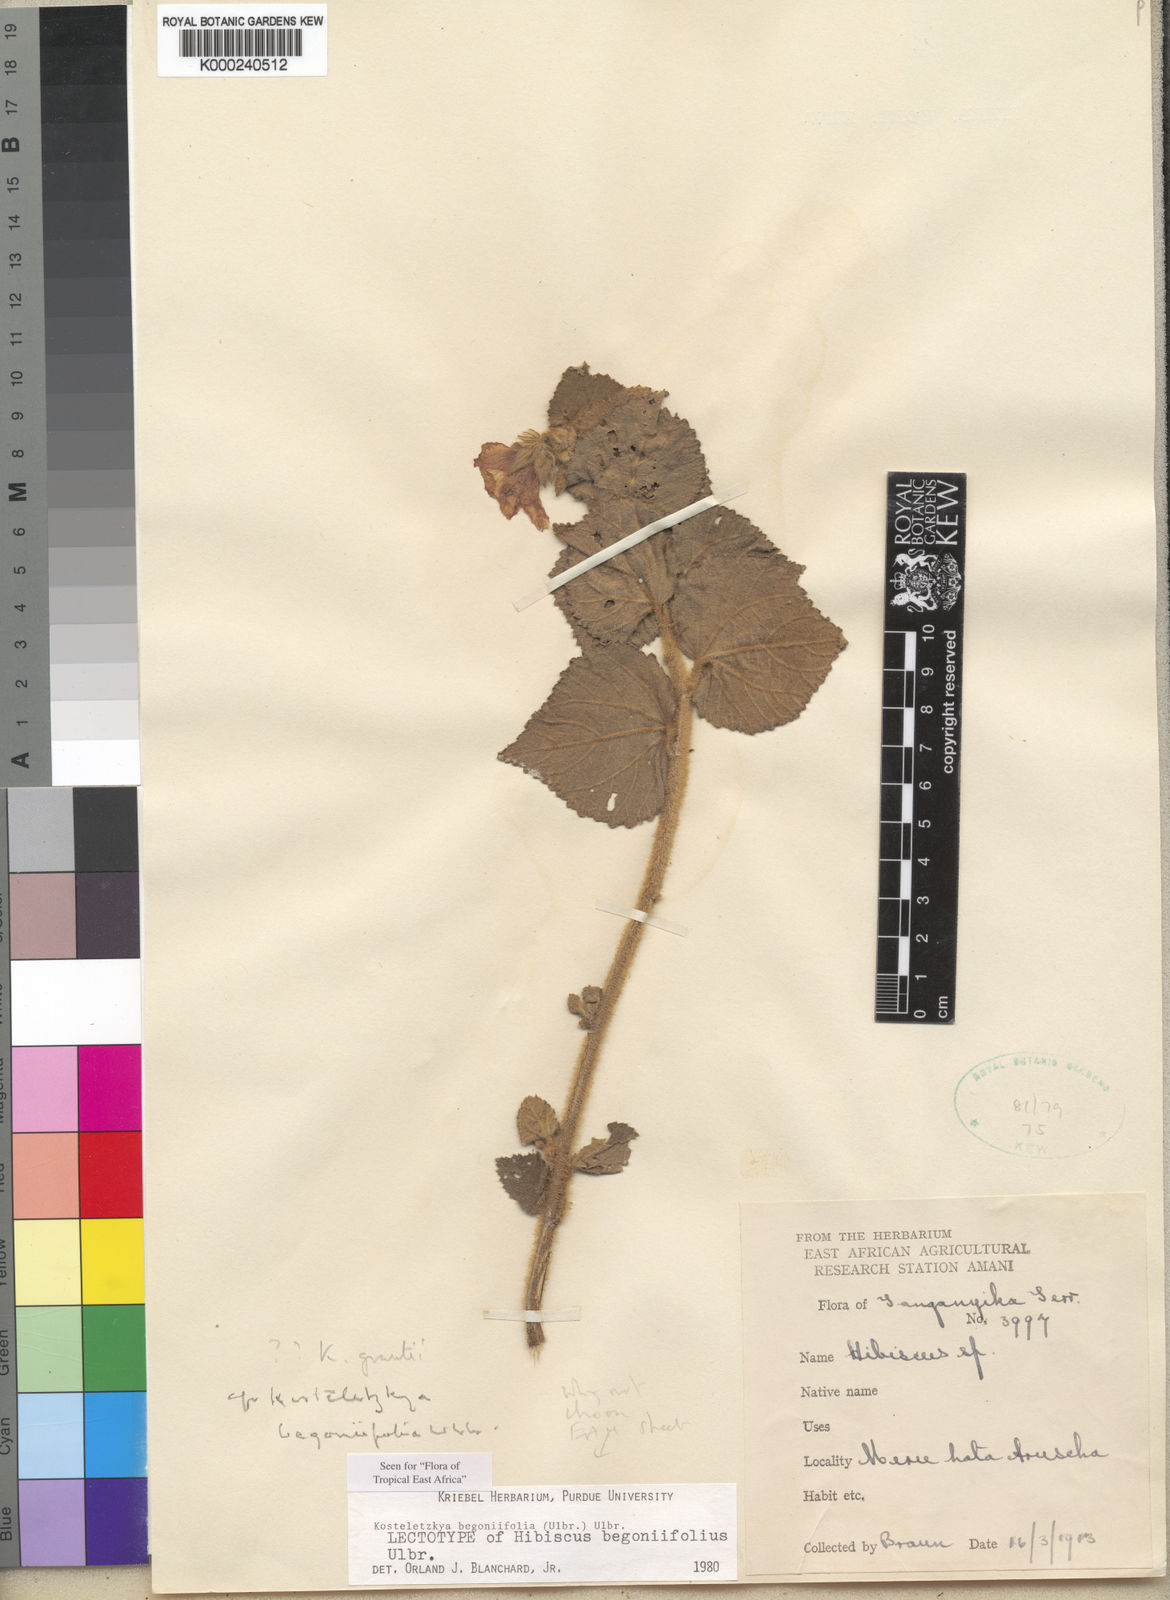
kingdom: Plantae
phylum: Tracheophyta
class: Magnoliopsida
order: Malvales
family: Malvaceae
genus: Kosteletzkya
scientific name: Kosteletzkya begoniifolia
